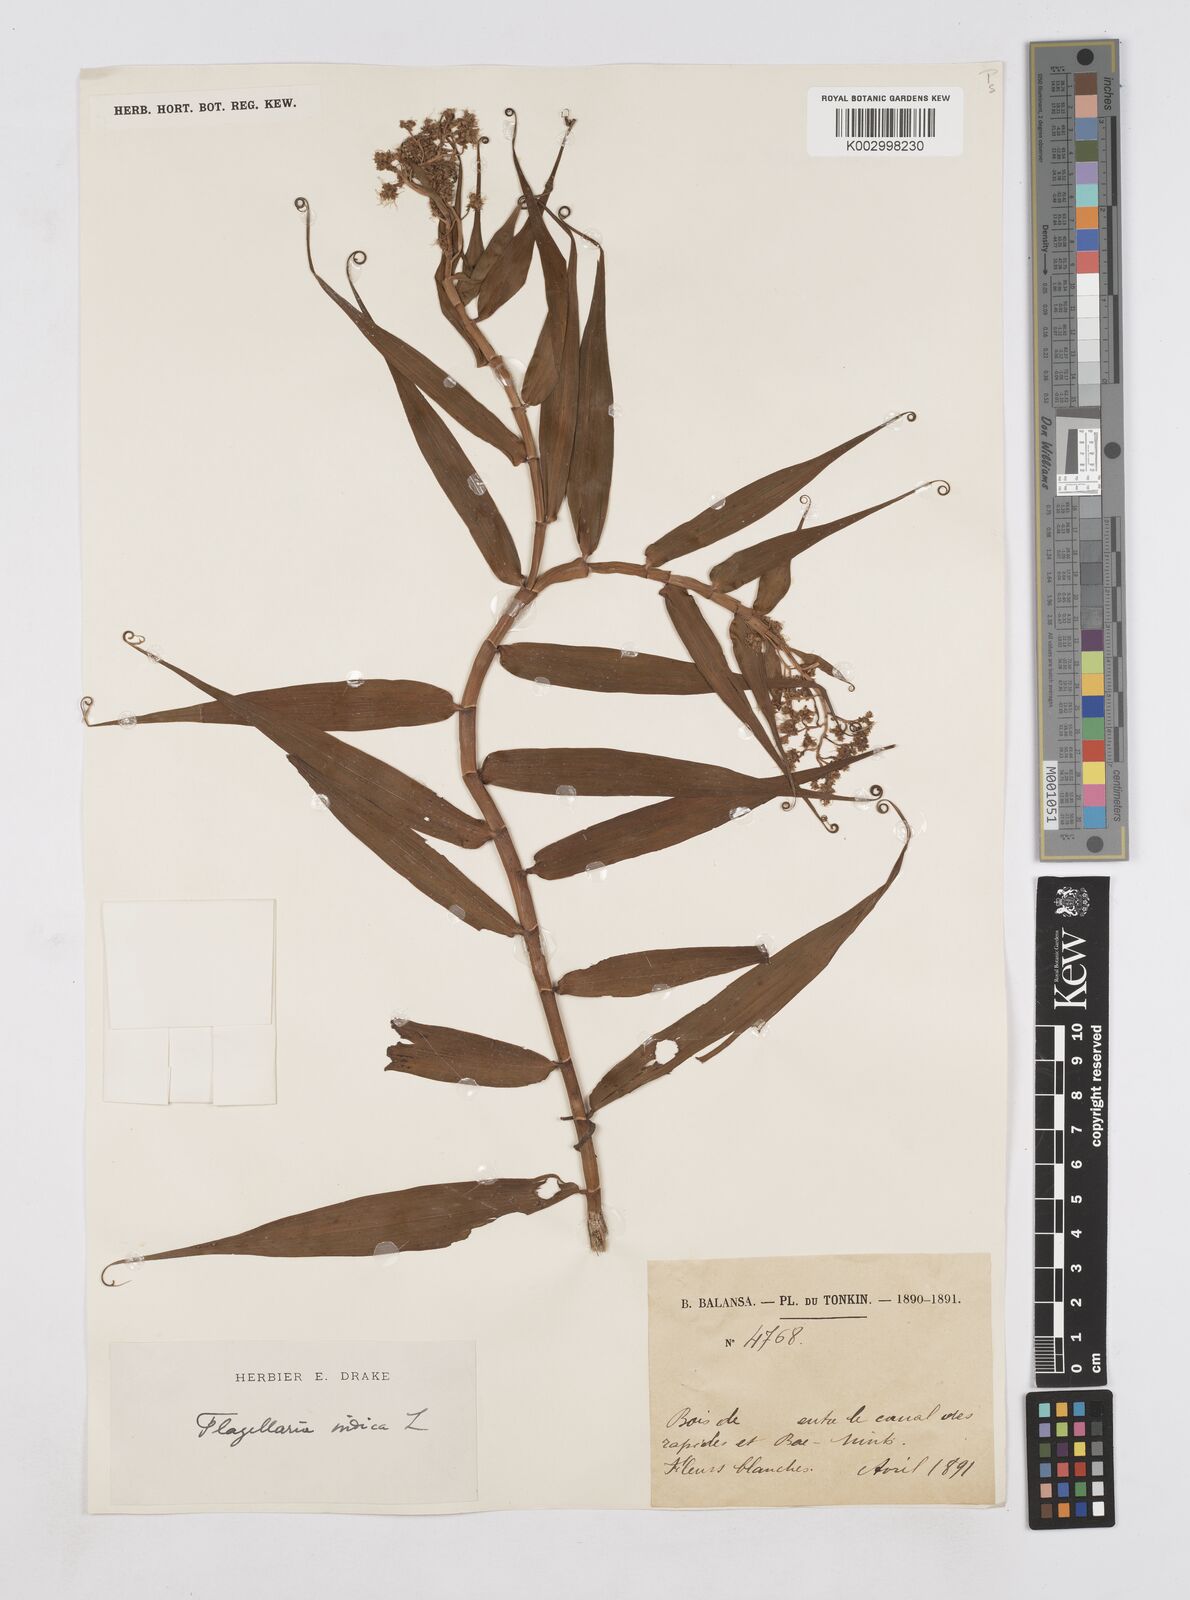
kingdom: Plantae
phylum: Tracheophyta
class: Liliopsida
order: Poales
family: Flagellariaceae
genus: Flagellaria
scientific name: Flagellaria indica
